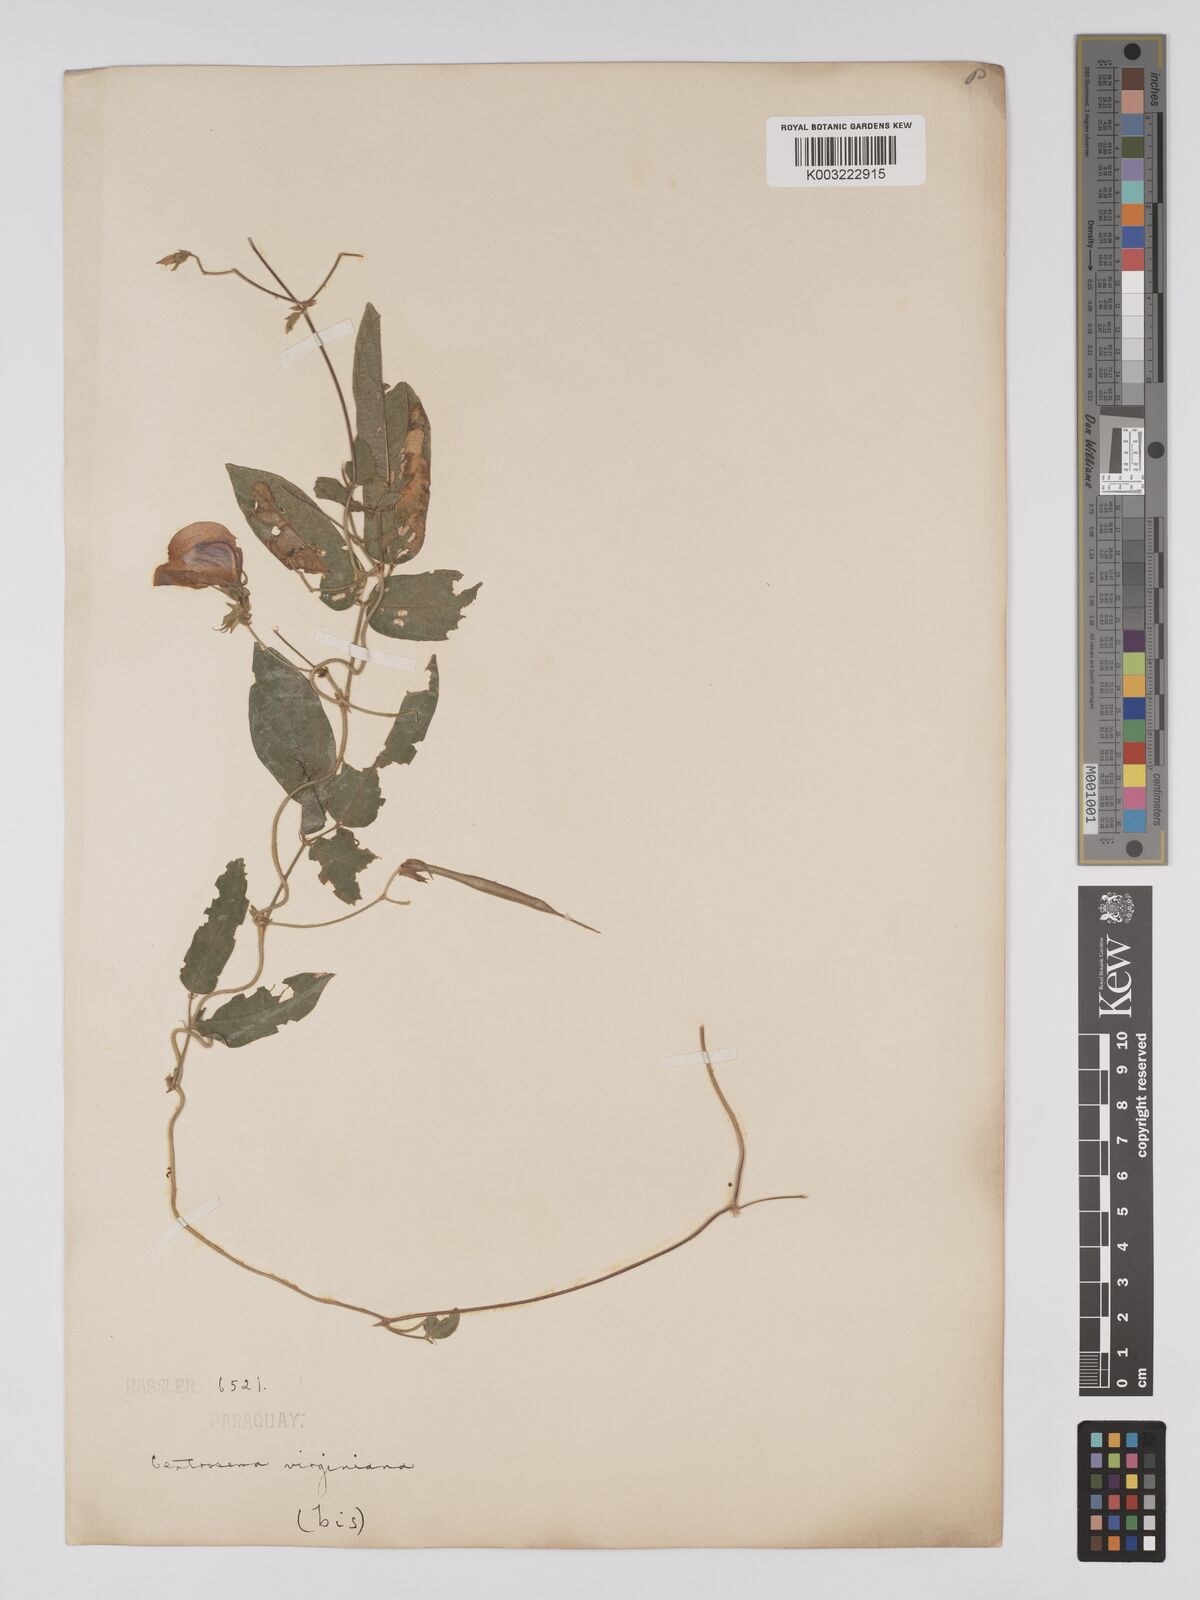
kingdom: Plantae
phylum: Tracheophyta
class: Magnoliopsida
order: Fabales
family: Fabaceae
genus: Centrosema
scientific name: Centrosema virginianum
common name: Butterfly-pea
